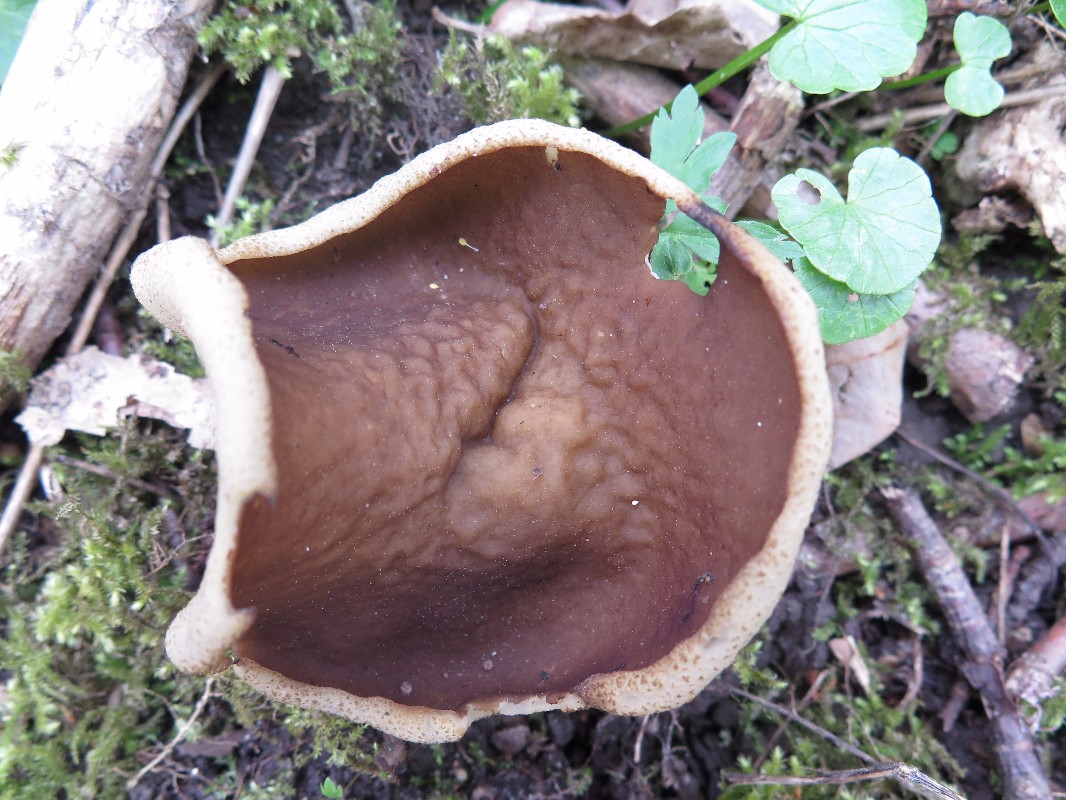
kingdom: Fungi
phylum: Ascomycota
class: Pezizomycetes
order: Pezizales
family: Morchellaceae
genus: Disciotis
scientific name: Disciotis venosa
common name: klor-bægermorkel
